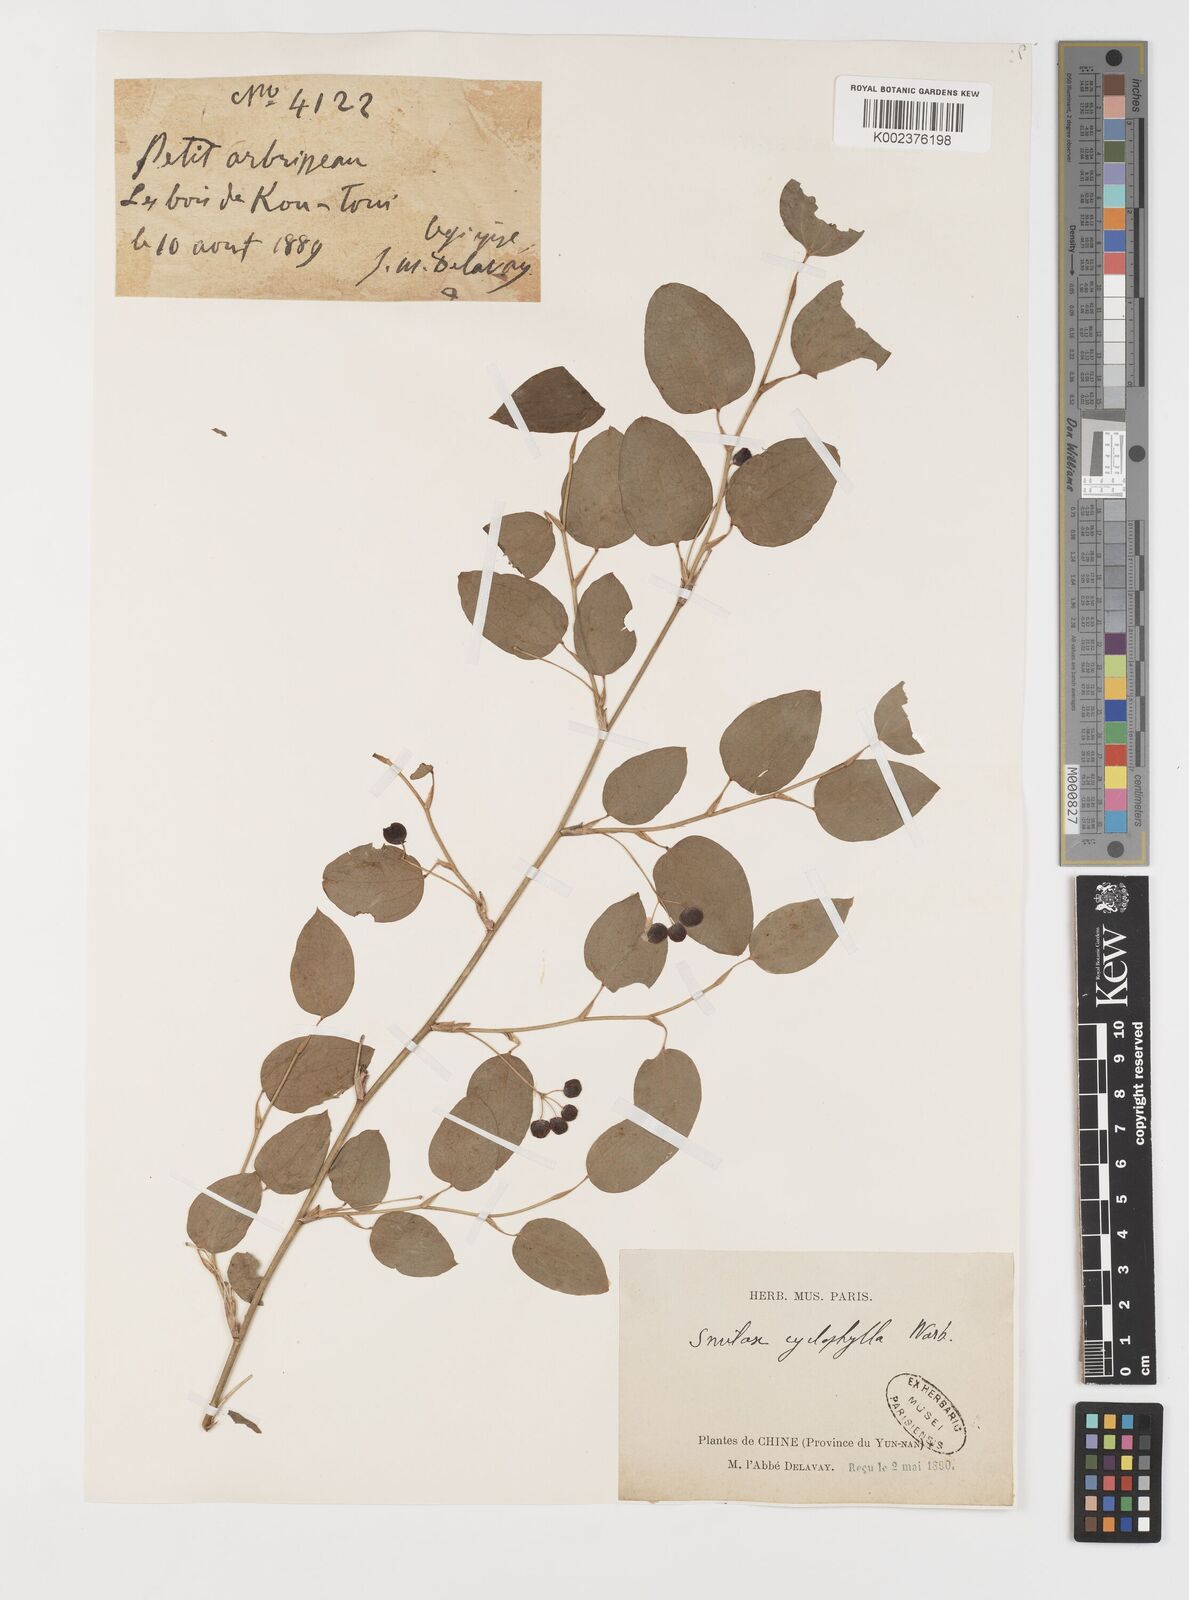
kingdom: Plantae
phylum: Tracheophyta
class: Liliopsida
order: Liliales
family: Smilacaceae
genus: Smilax
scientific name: Smilax neocyclophylla
